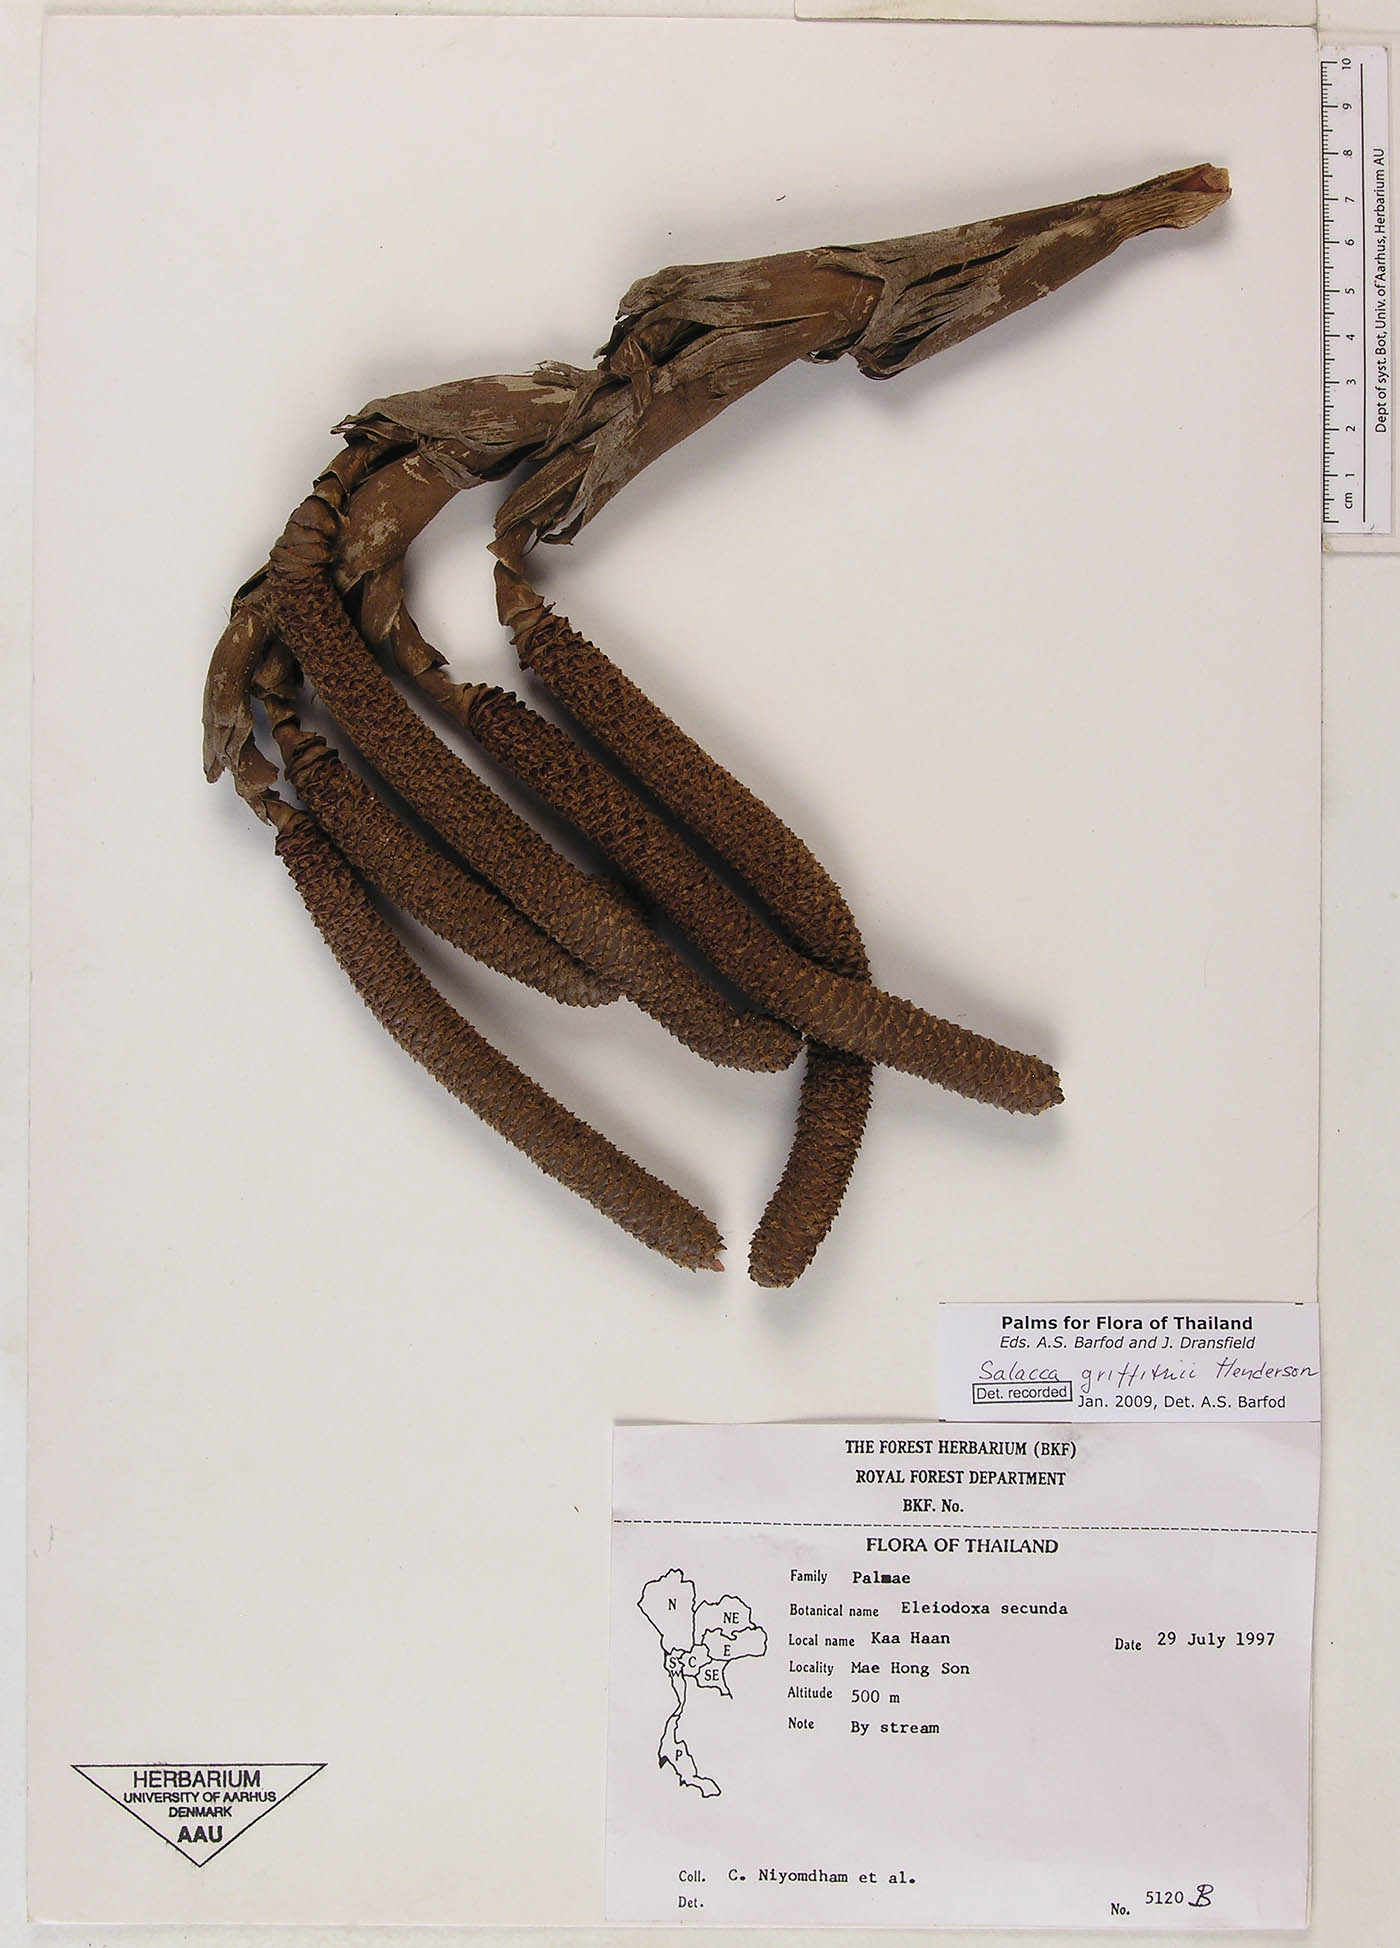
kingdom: Plantae
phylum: Tracheophyta
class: Liliopsida
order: Arecales
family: Arecaceae
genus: Salacca
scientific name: Salacca griffithii
